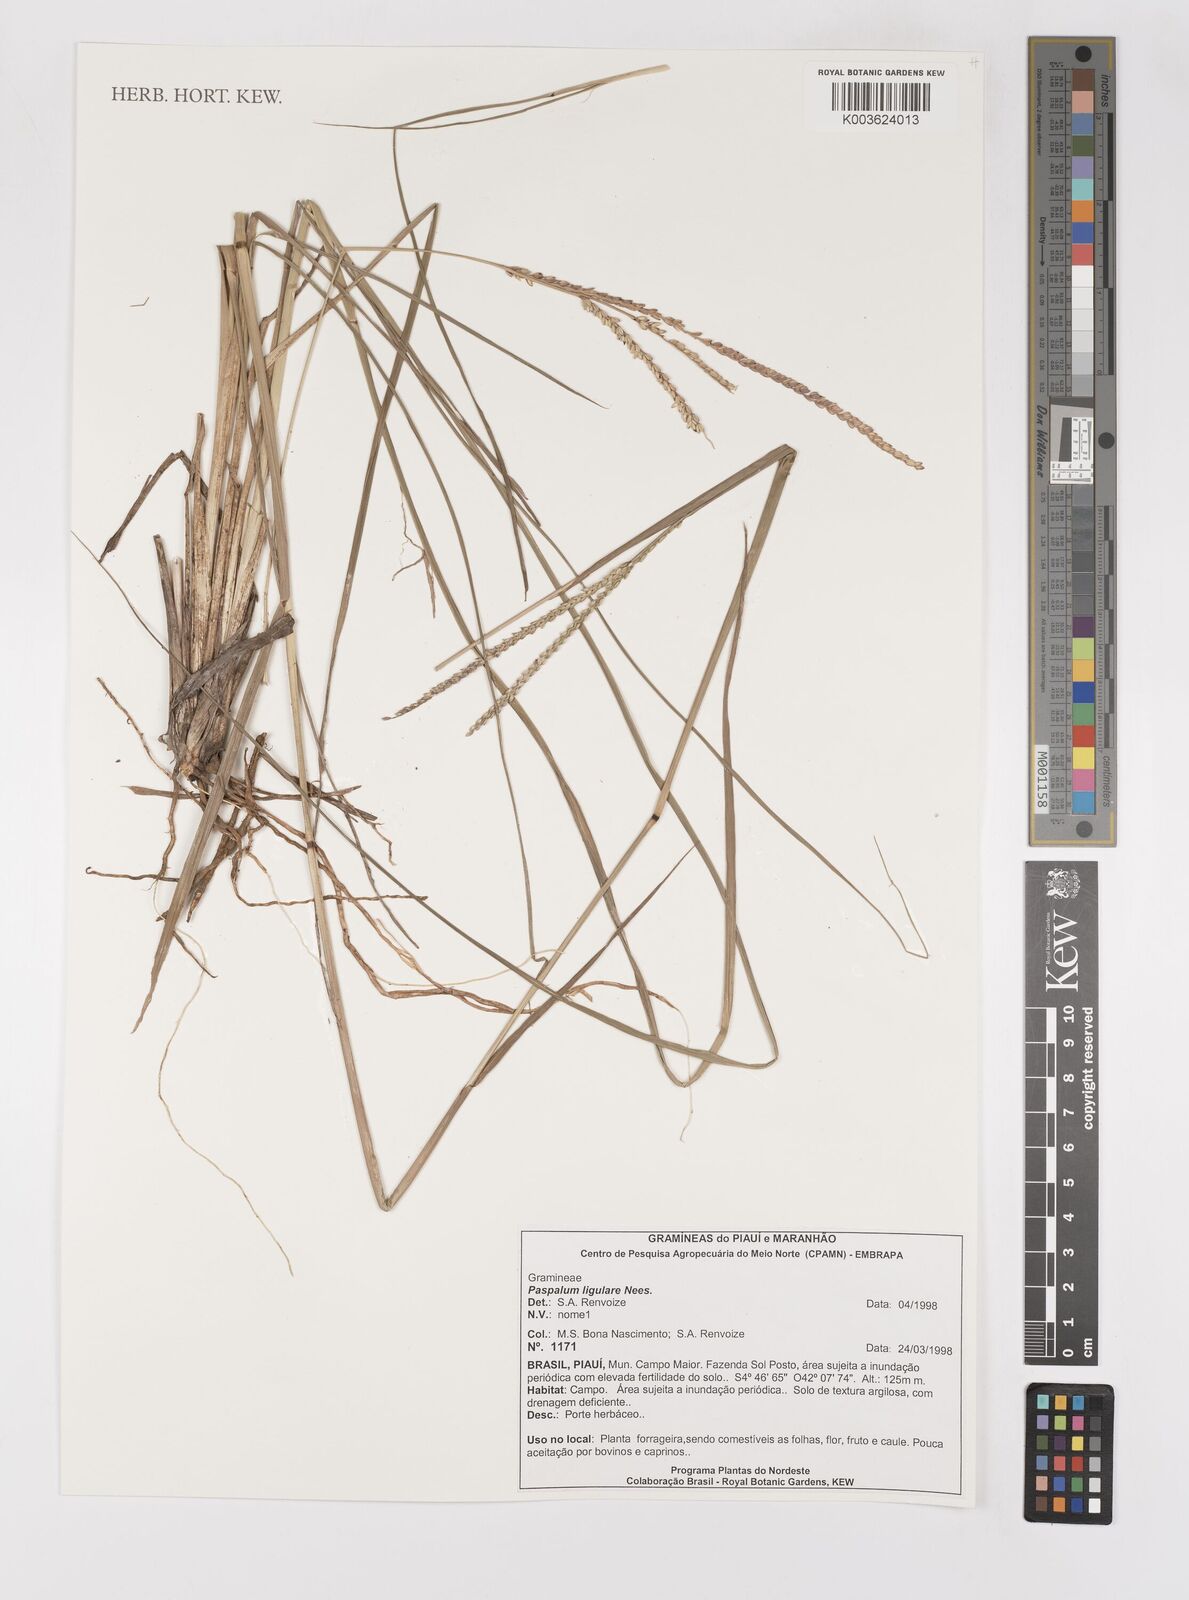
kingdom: Plantae
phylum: Tracheophyta
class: Liliopsida
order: Poales
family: Poaceae
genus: Paspalum
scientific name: Paspalum ligulare
